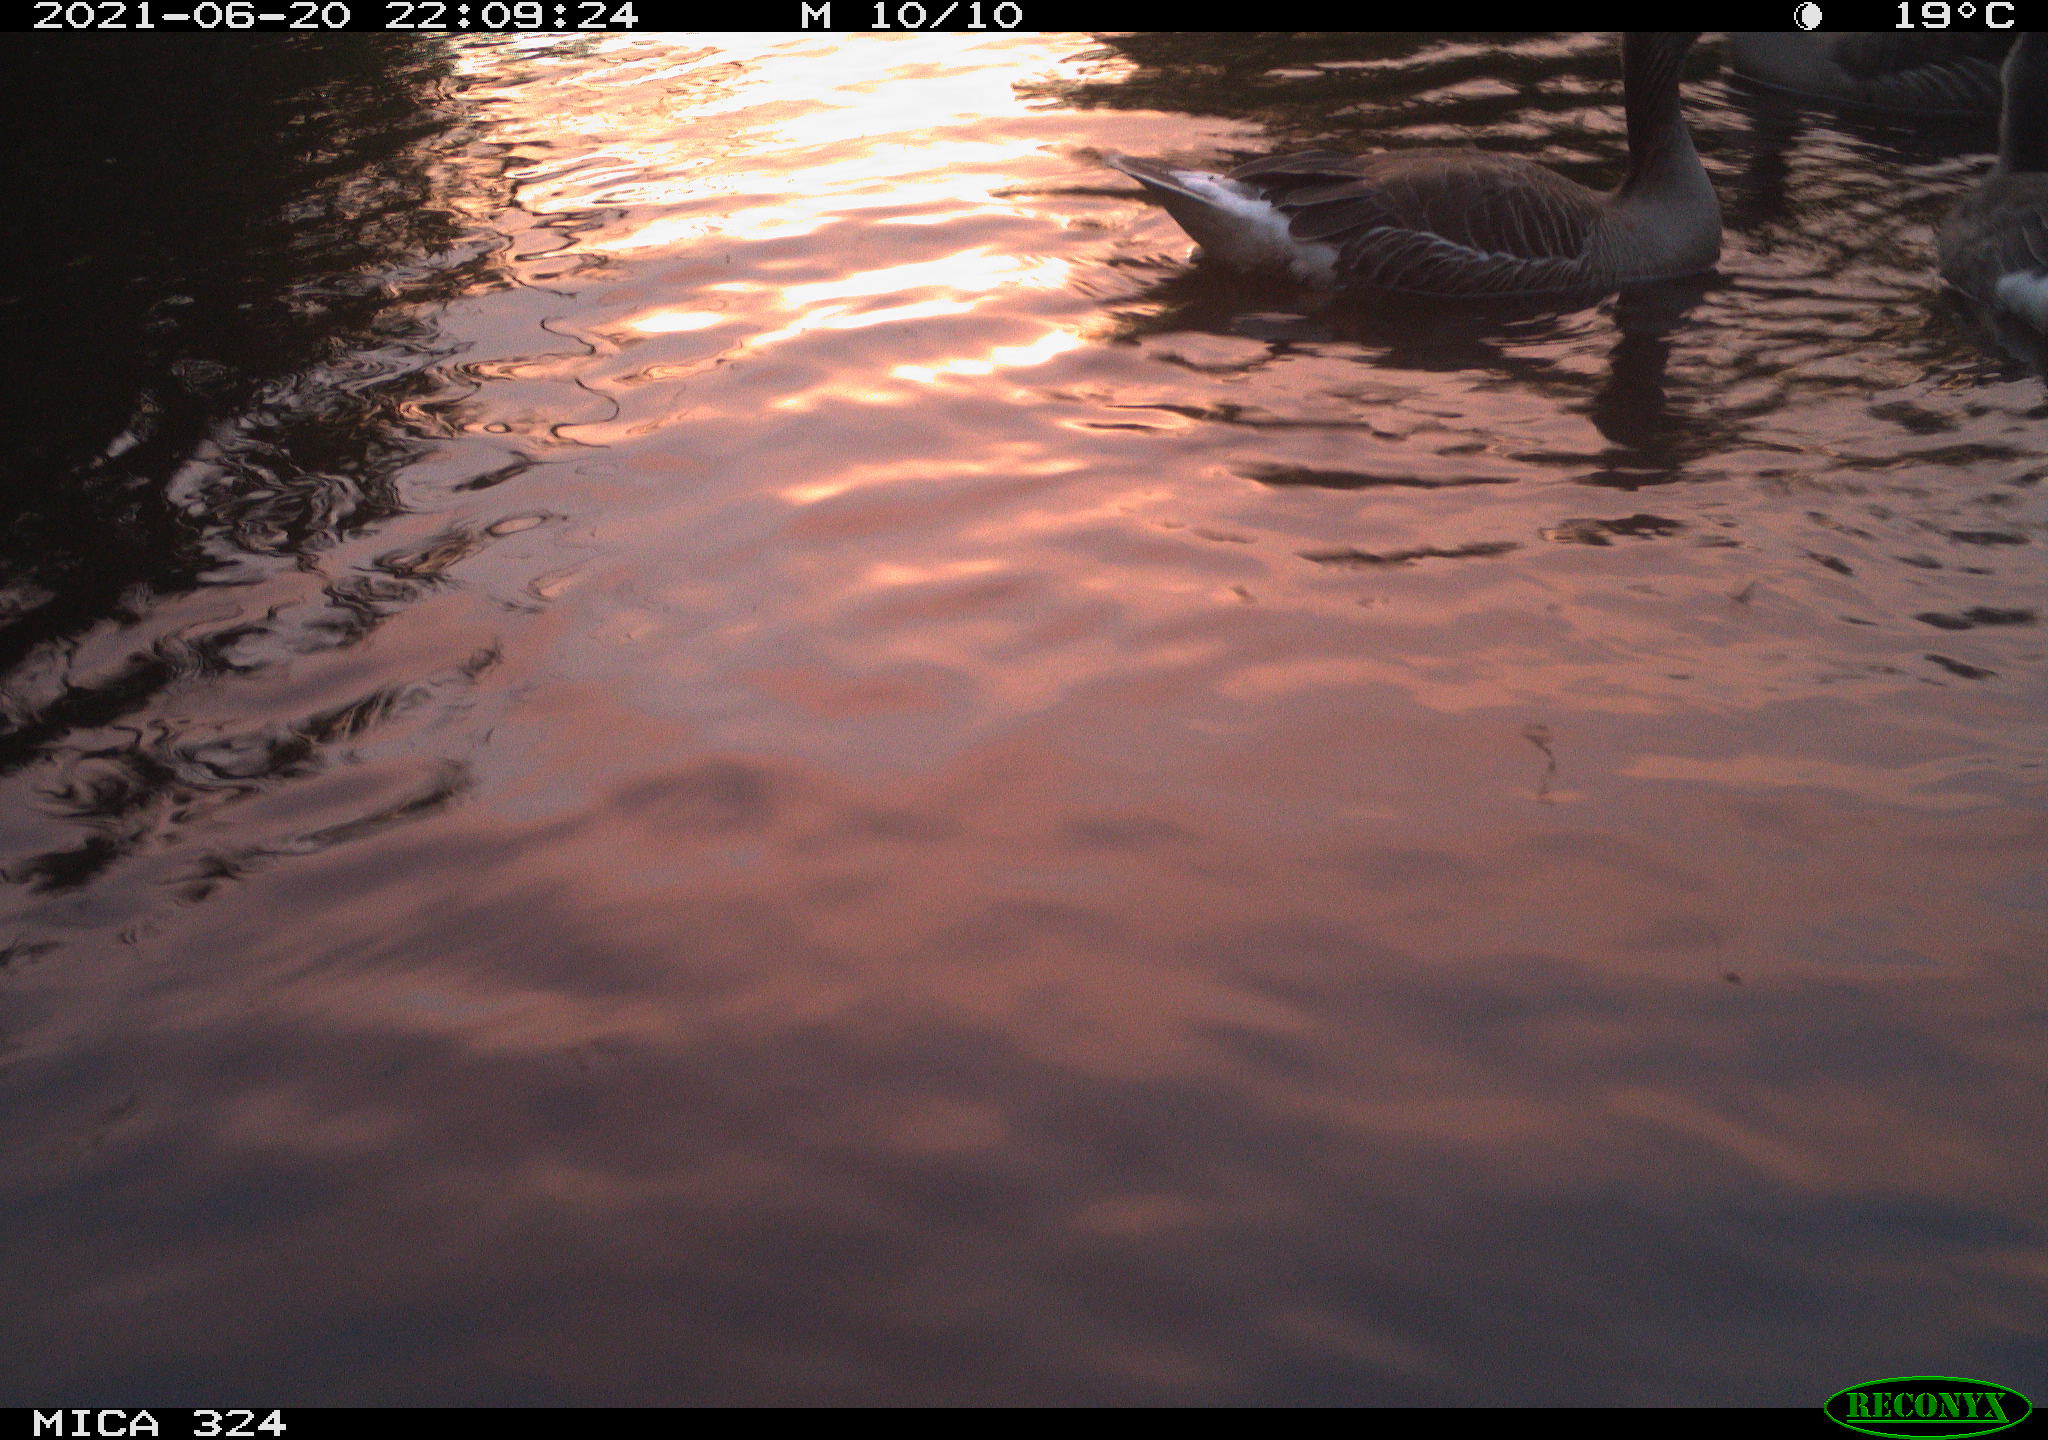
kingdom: Animalia
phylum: Chordata
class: Aves
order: Anseriformes
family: Anatidae
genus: Anser
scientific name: Anser anser
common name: Greylag goose
